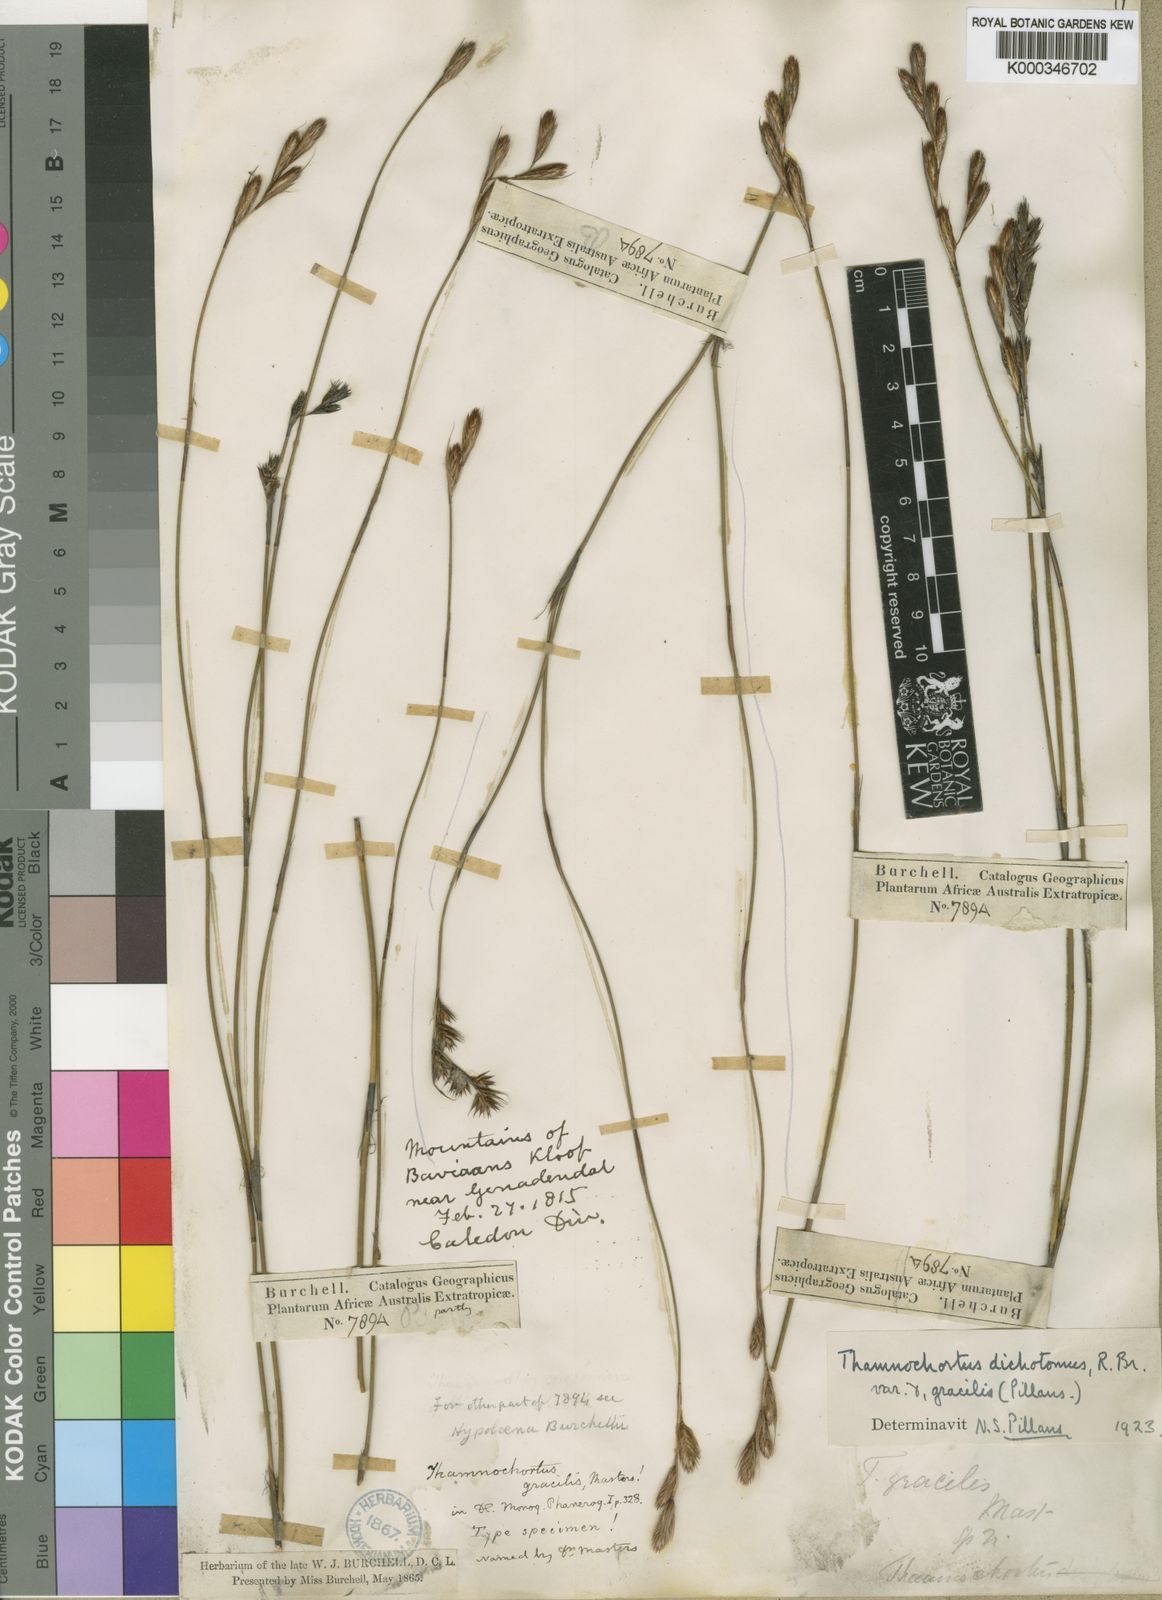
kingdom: Plantae
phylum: Tracheophyta
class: Liliopsida
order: Poales
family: Restionaceae
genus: Thamnochortus
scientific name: Thamnochortus gracilis
